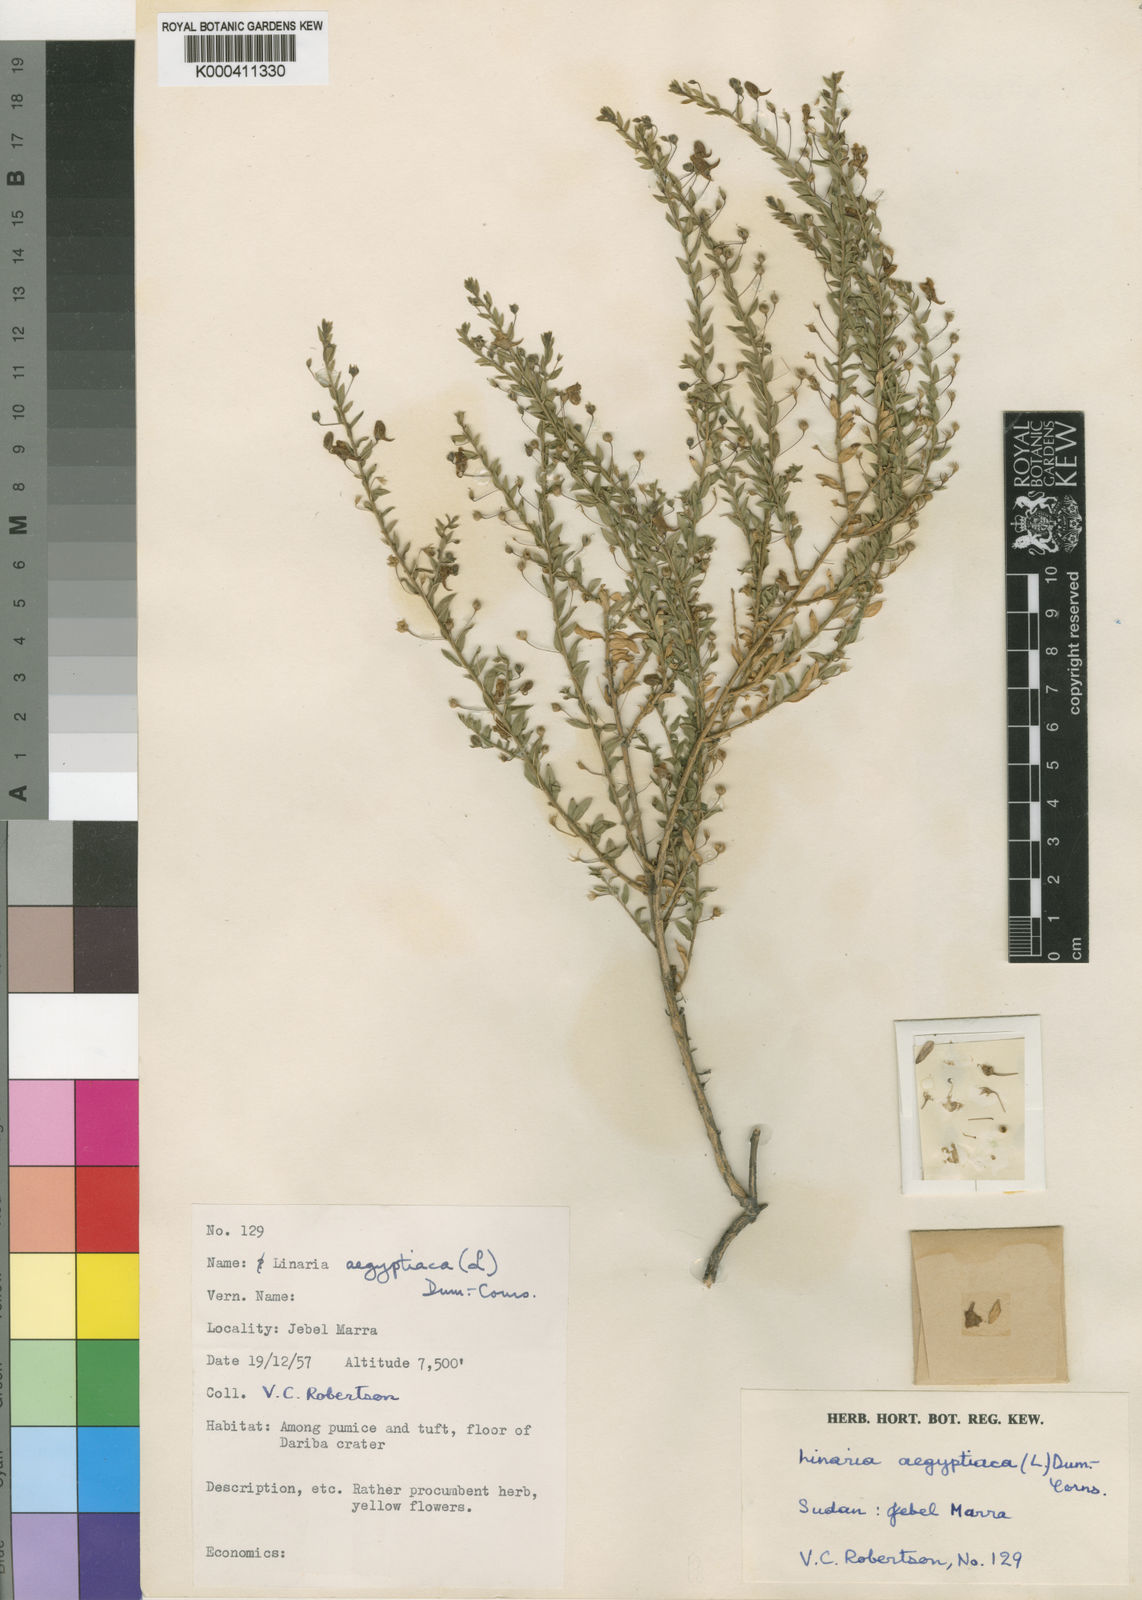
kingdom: Plantae
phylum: Tracheophyta
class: Magnoliopsida
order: Lamiales
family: Plantaginaceae
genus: Kickxia
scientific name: Kickxia
